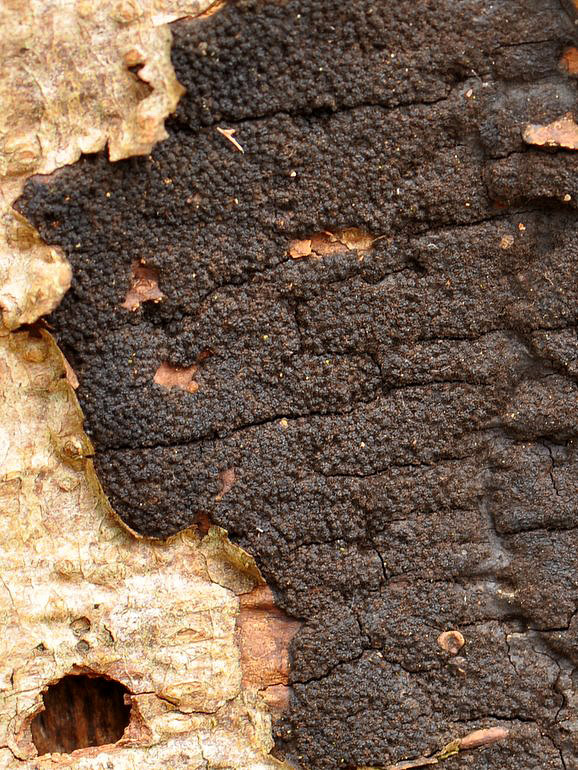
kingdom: Fungi
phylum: Ascomycota
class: Sordariomycetes
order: Xylariales
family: Diatrypaceae
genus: Eutypa
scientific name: Eutypa spinosa
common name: grov kulskorpe
